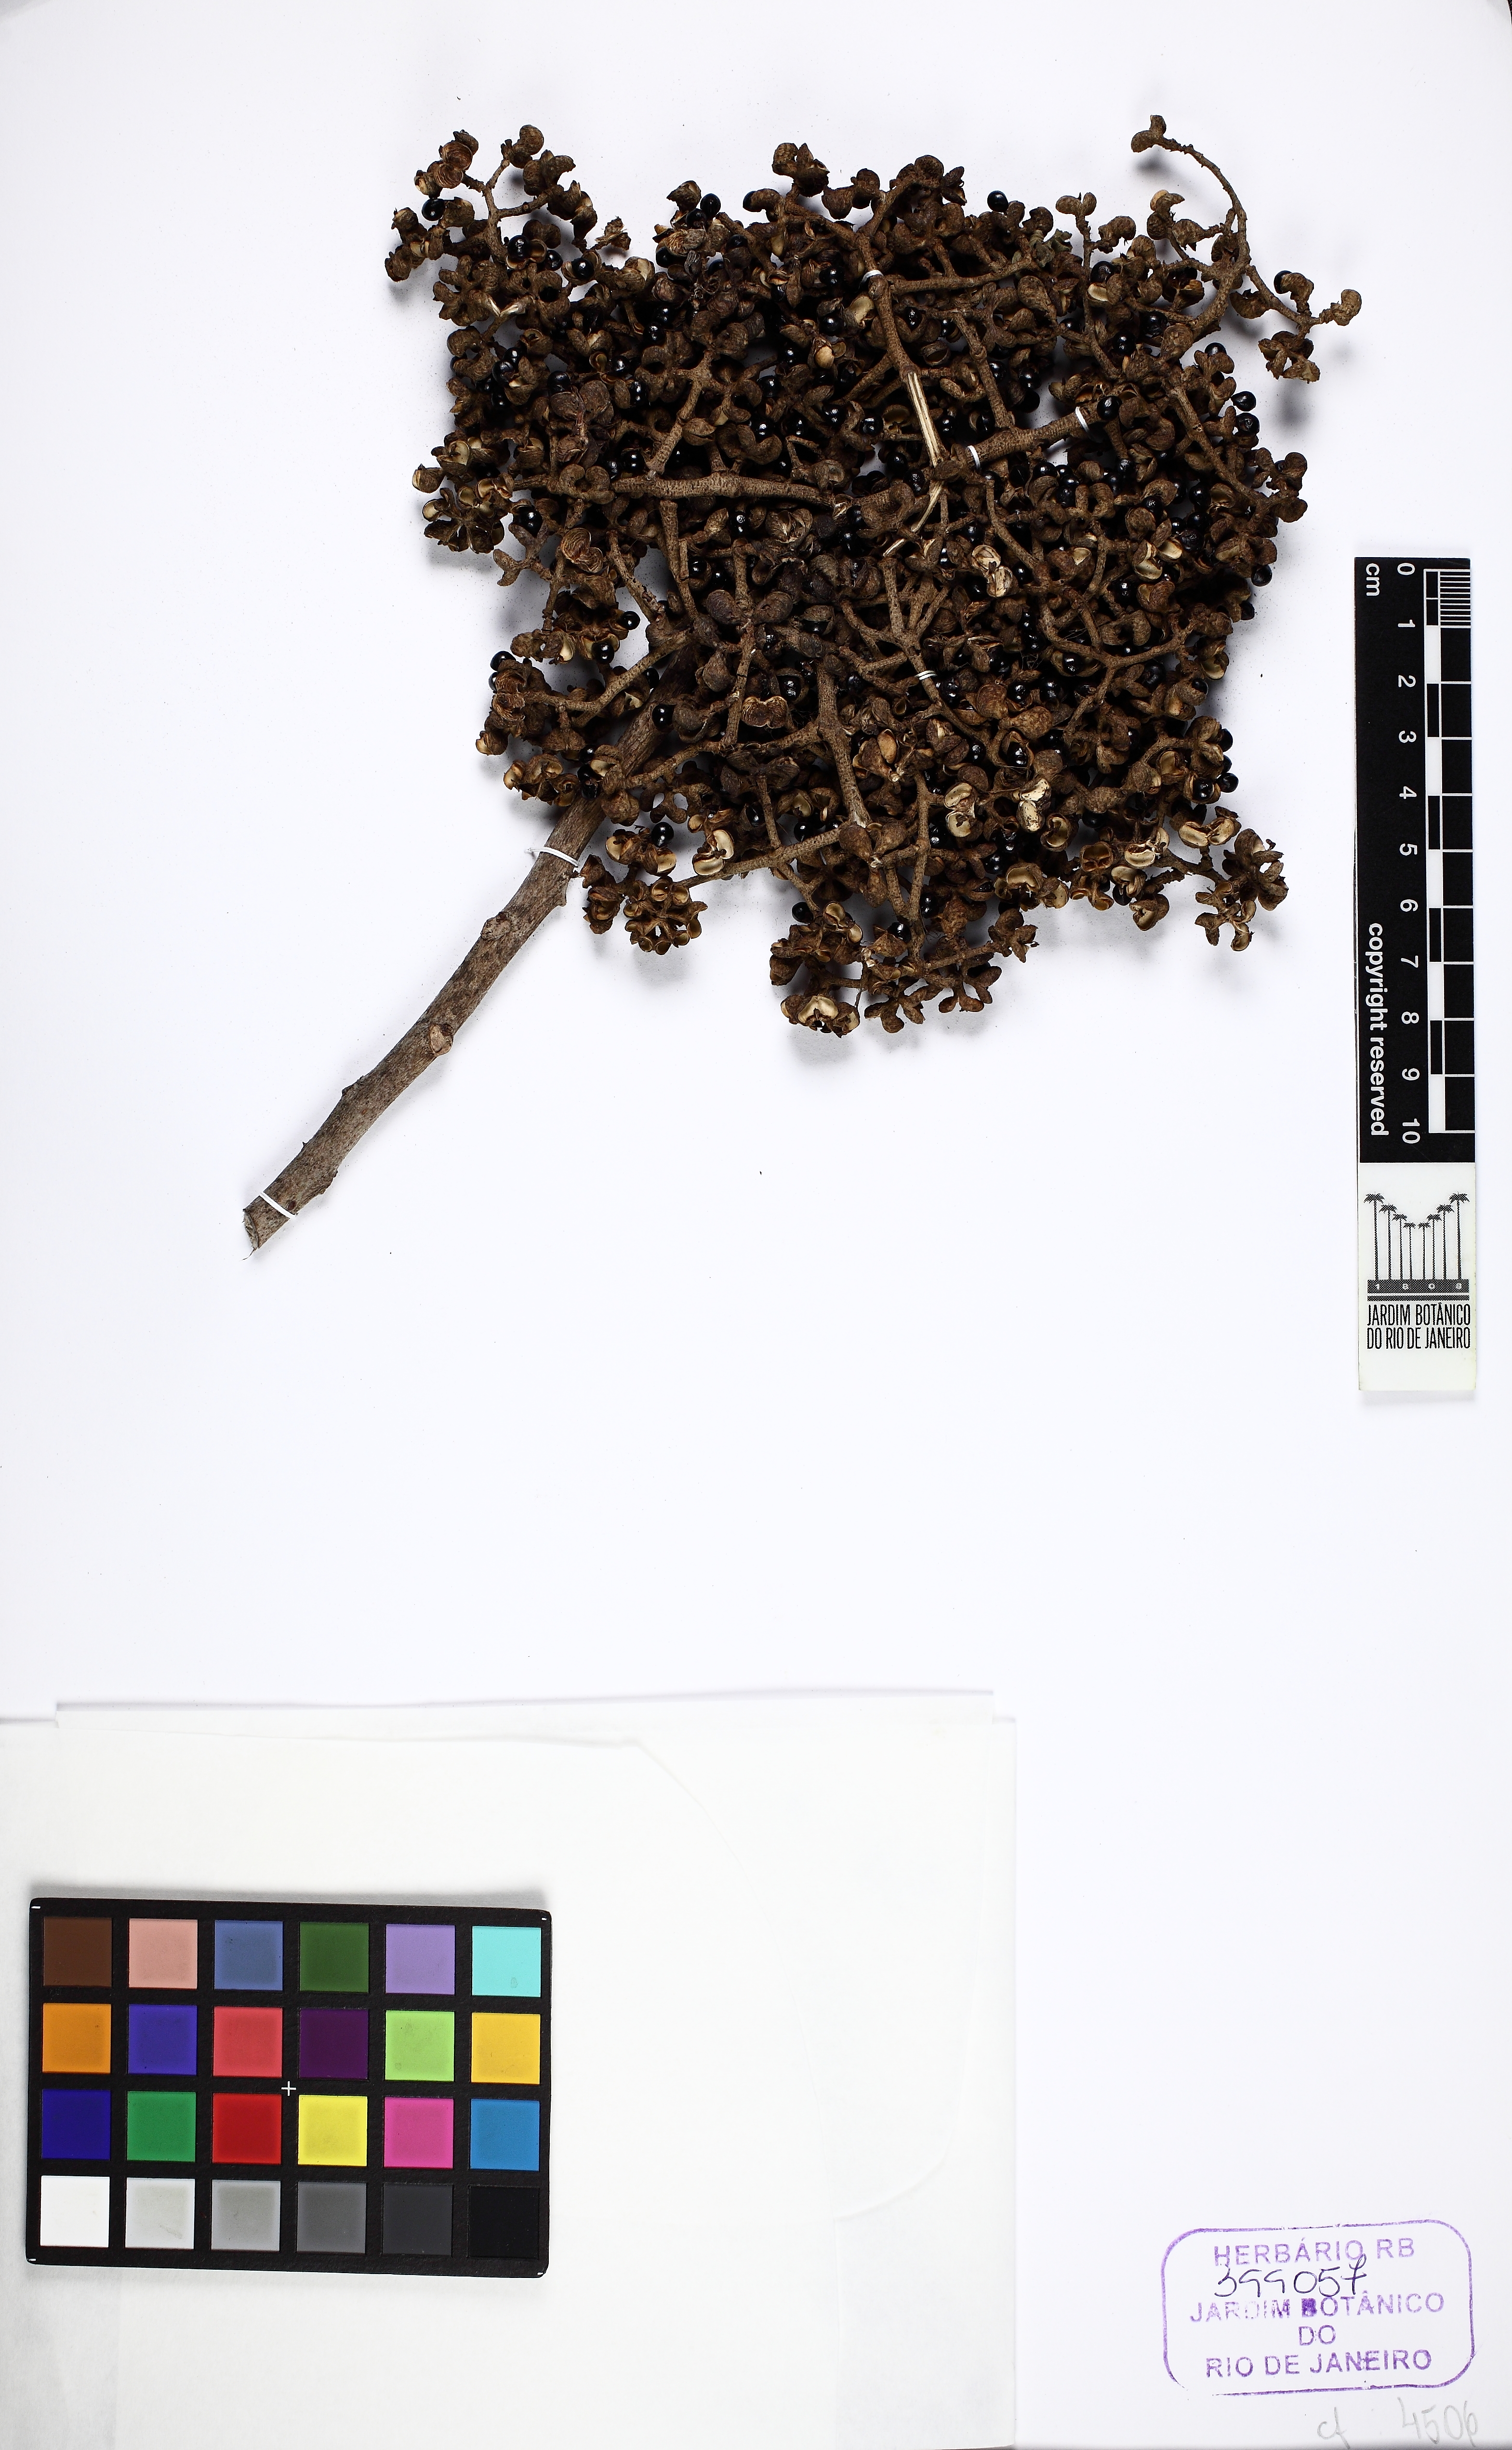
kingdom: Plantae
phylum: Tracheophyta
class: Magnoliopsida
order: Sapindales
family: Rutaceae
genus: Zanthoxylum
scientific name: Zanthoxylum caribaeum
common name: Prickly yellow
